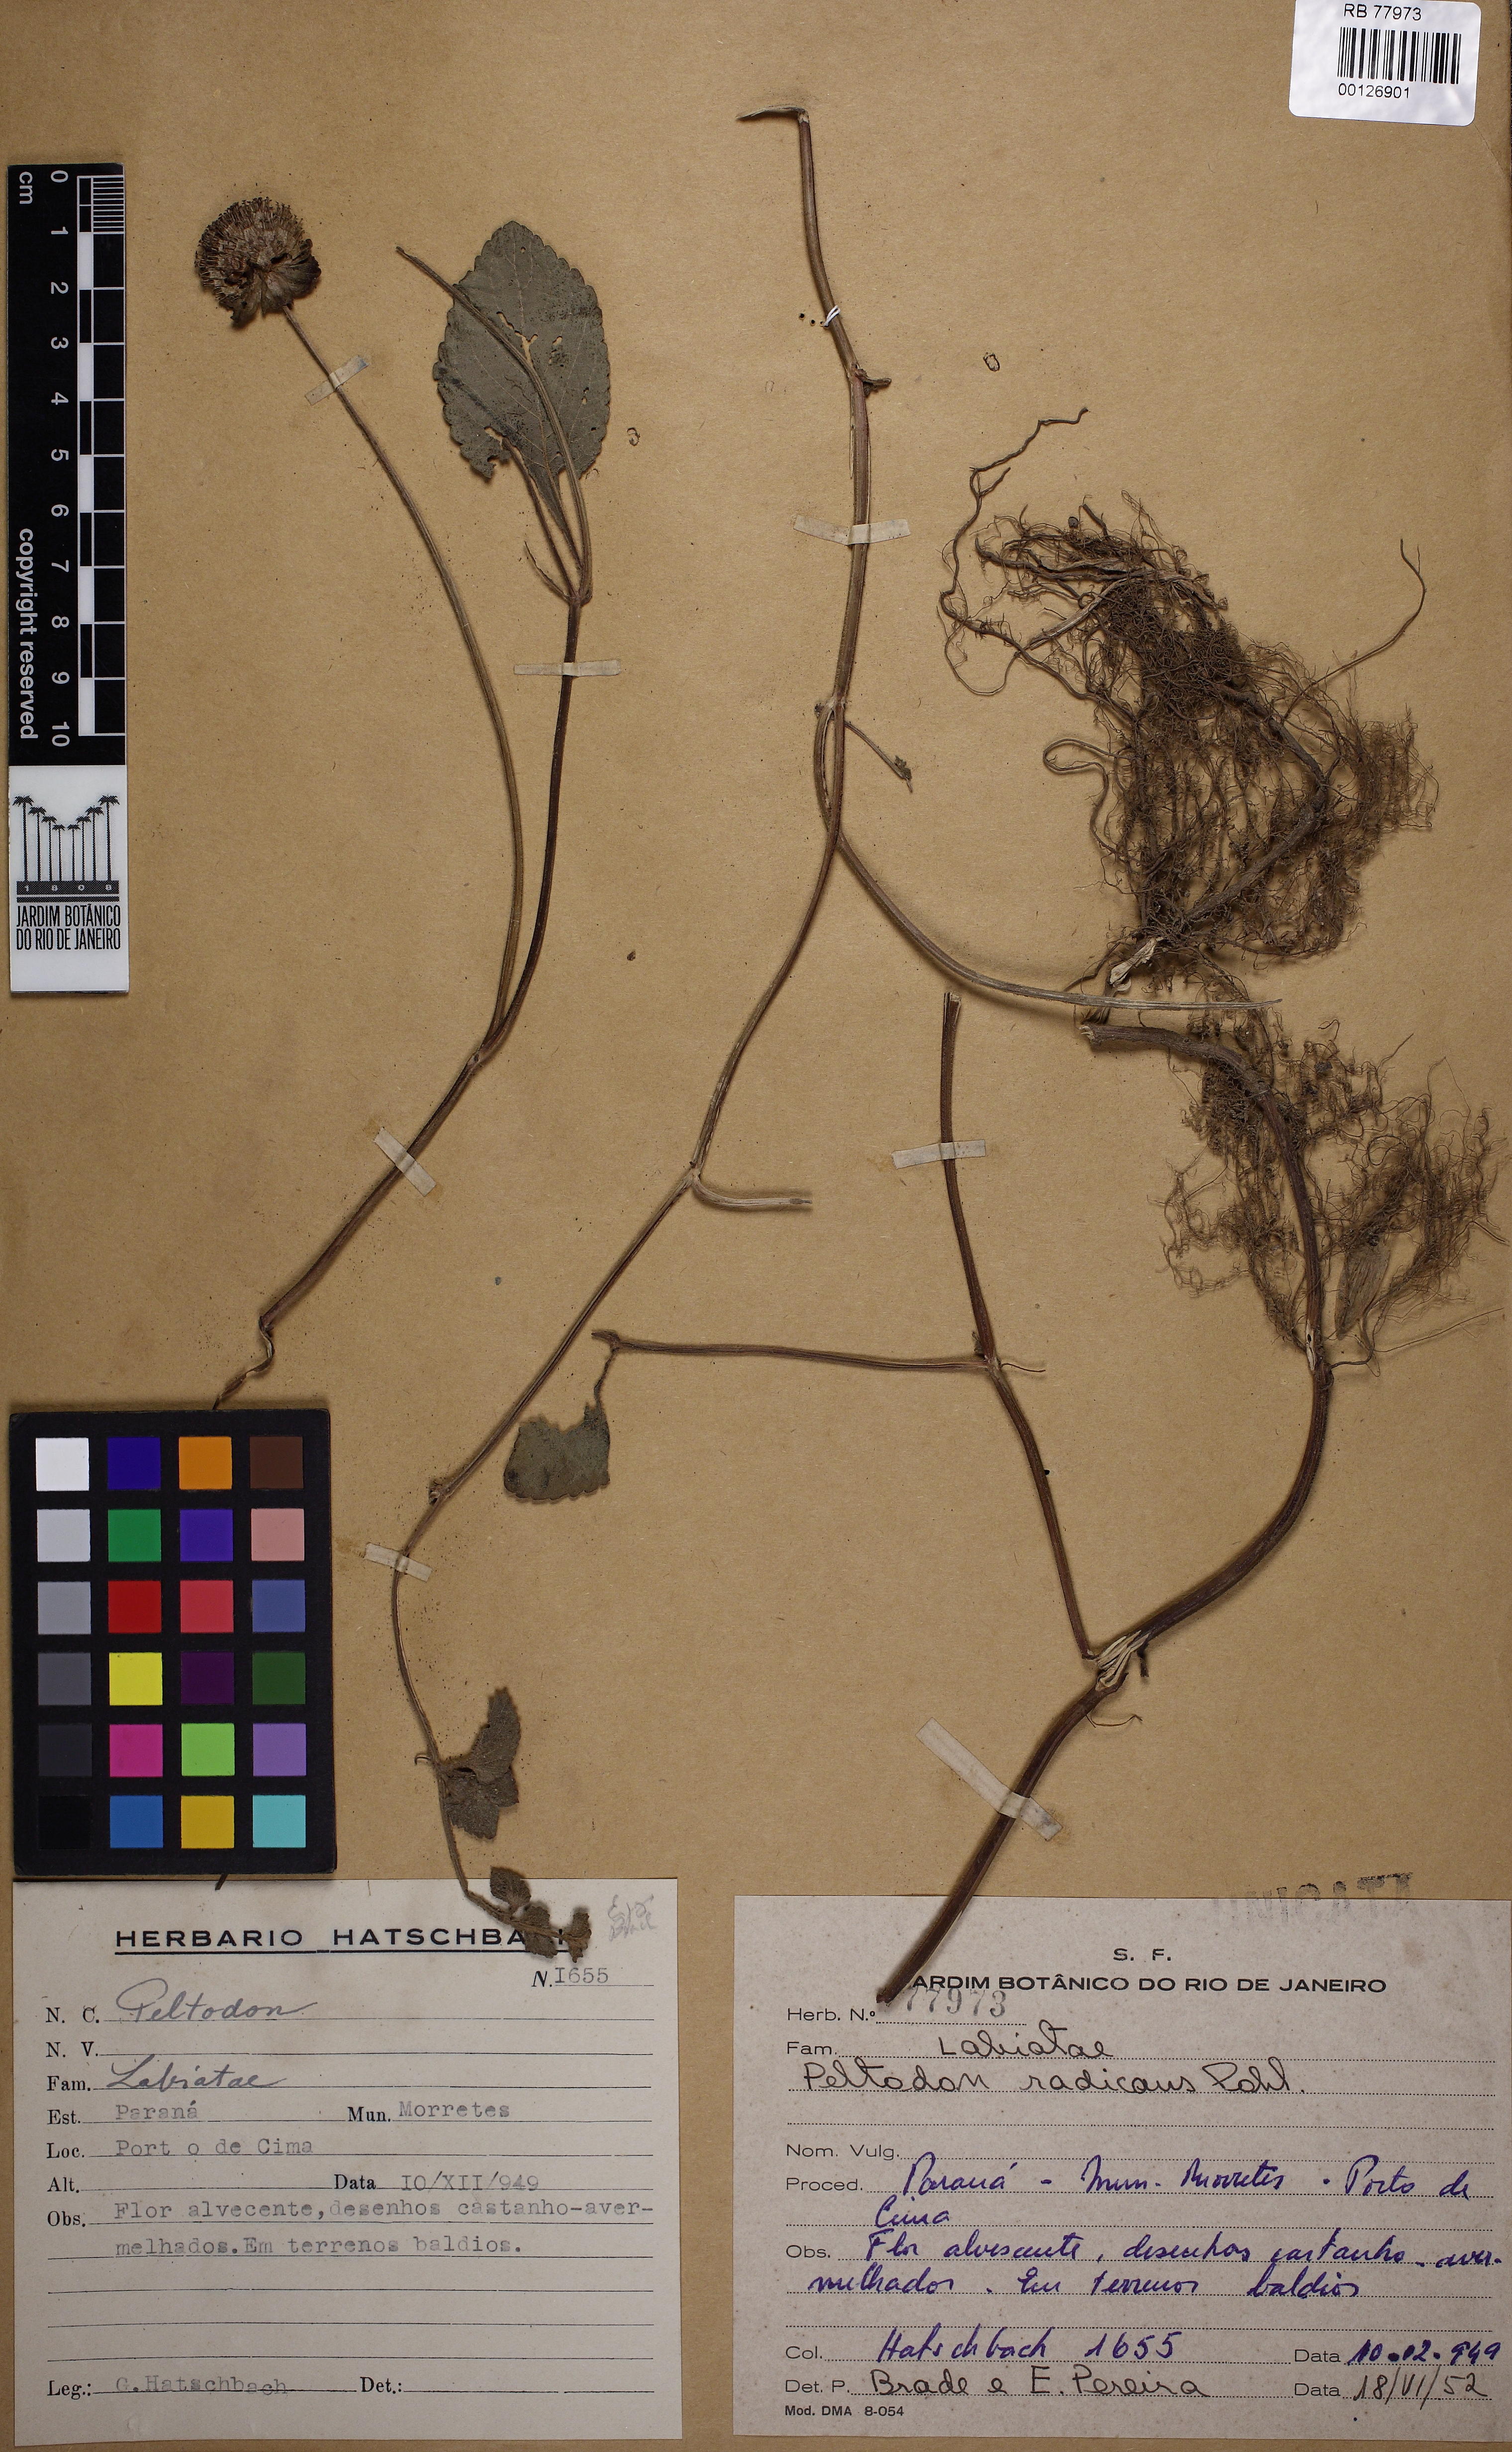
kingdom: Plantae
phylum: Tracheophyta
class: Magnoliopsida
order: Lamiales
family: Lamiaceae
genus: Hyptis
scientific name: Hyptis radicans
